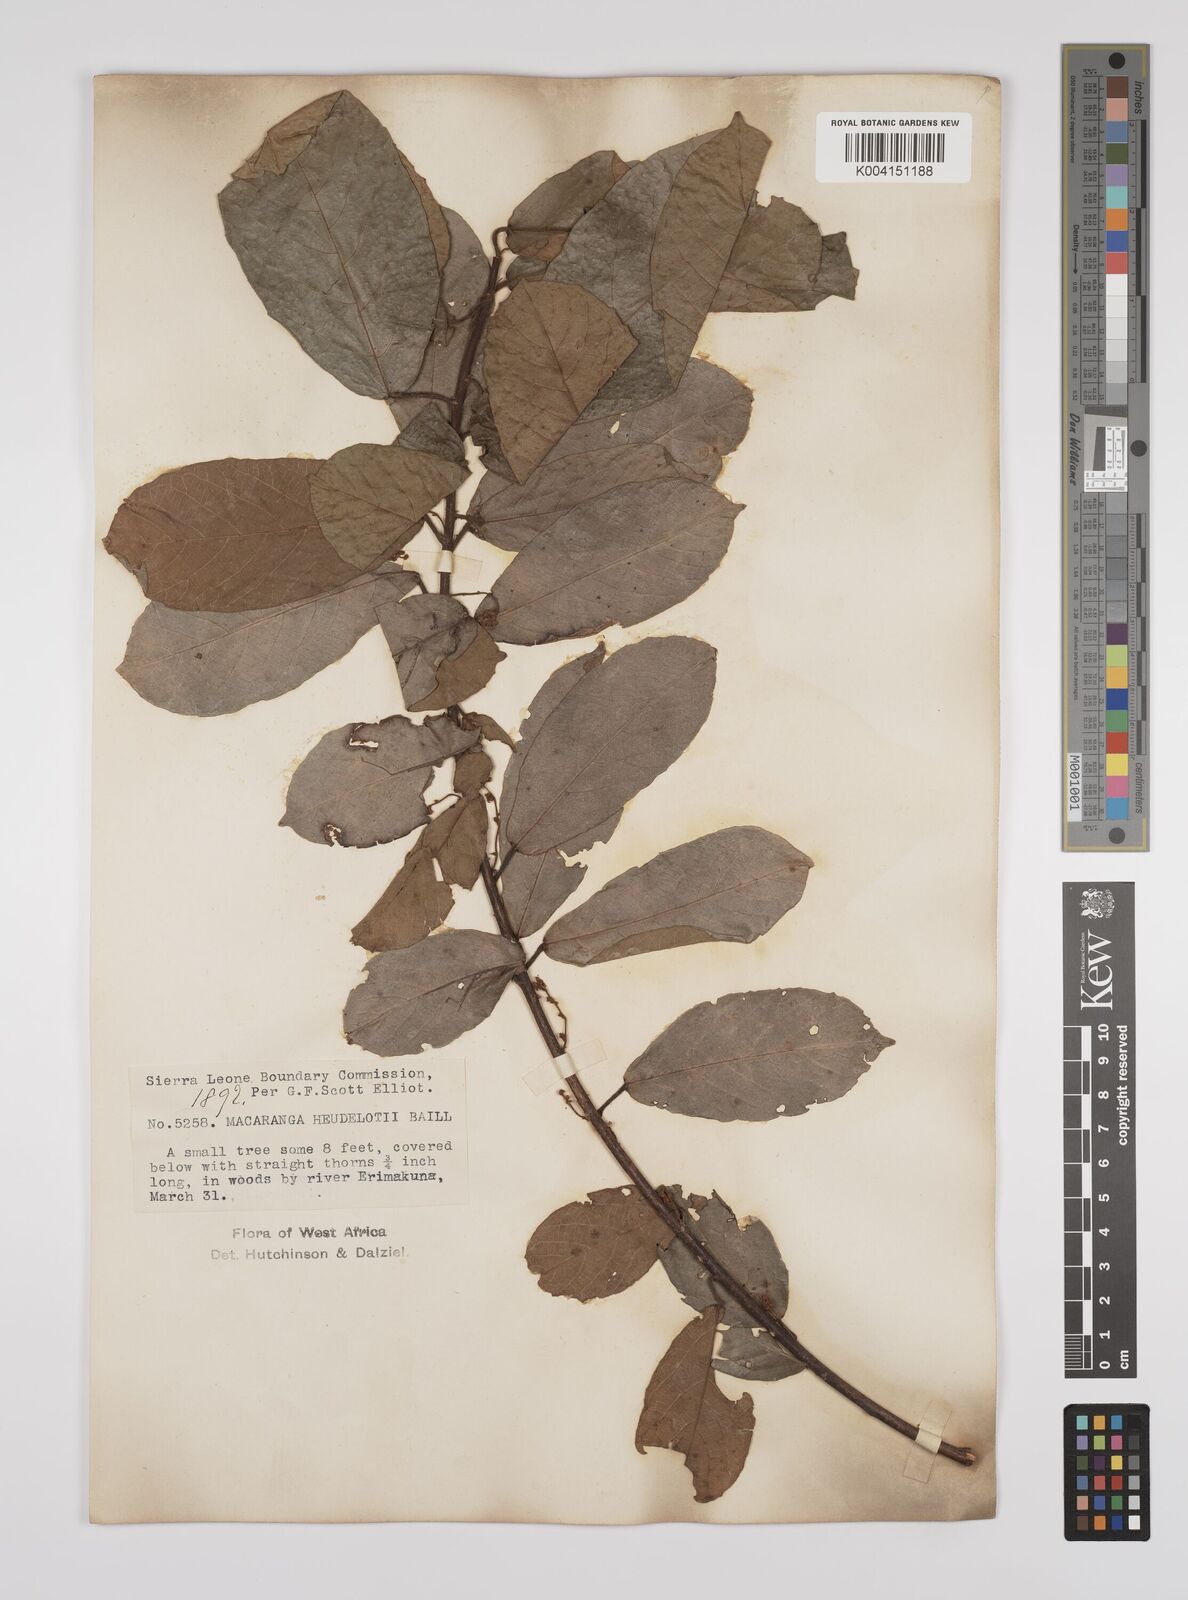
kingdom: Plantae
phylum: Tracheophyta
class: Magnoliopsida
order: Malpighiales
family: Euphorbiaceae
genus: Macaranga
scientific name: Macaranga heudelotii
